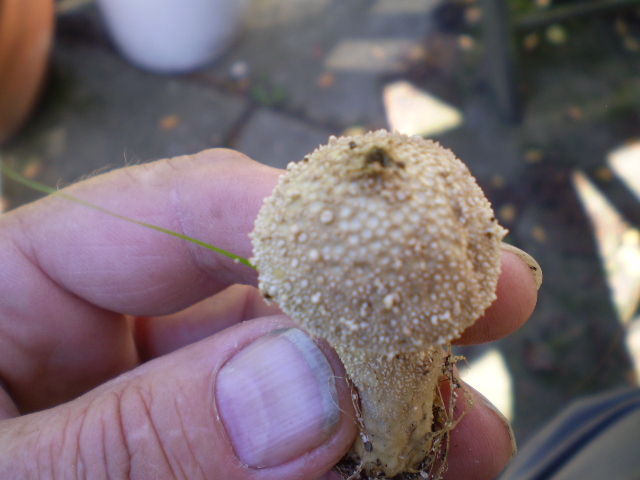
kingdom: Fungi
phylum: Basidiomycota
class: Agaricomycetes
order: Agaricales
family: Lycoperdaceae
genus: Lycoperdon
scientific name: Lycoperdon perlatum
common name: krystal-støvbold
